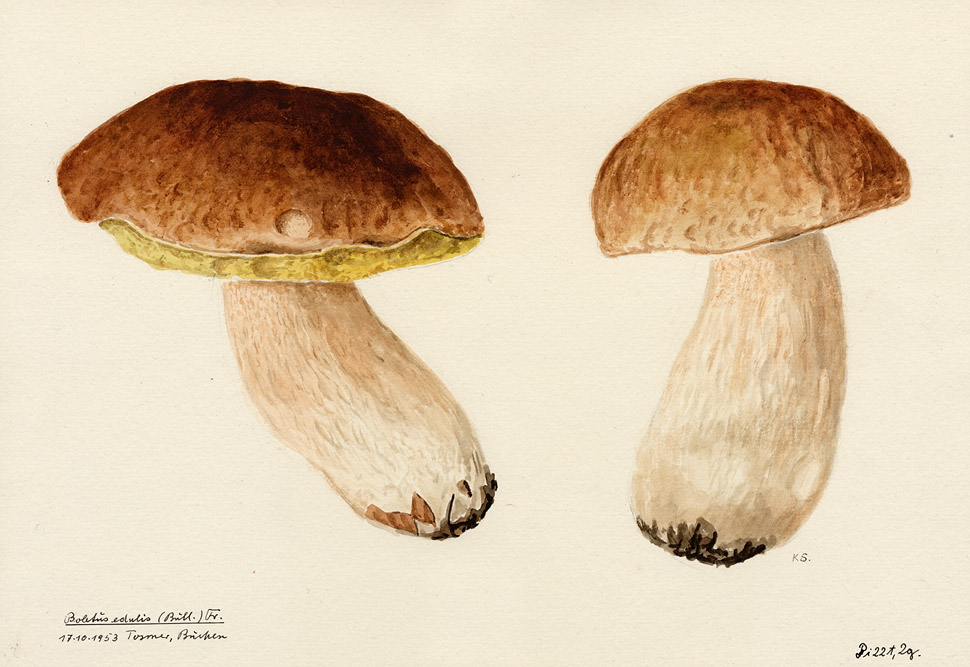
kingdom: Fungi
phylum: Basidiomycota
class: Agaricomycetes
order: Boletales
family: Boletaceae
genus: Boletus
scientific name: Boletus edulis
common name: Cep
